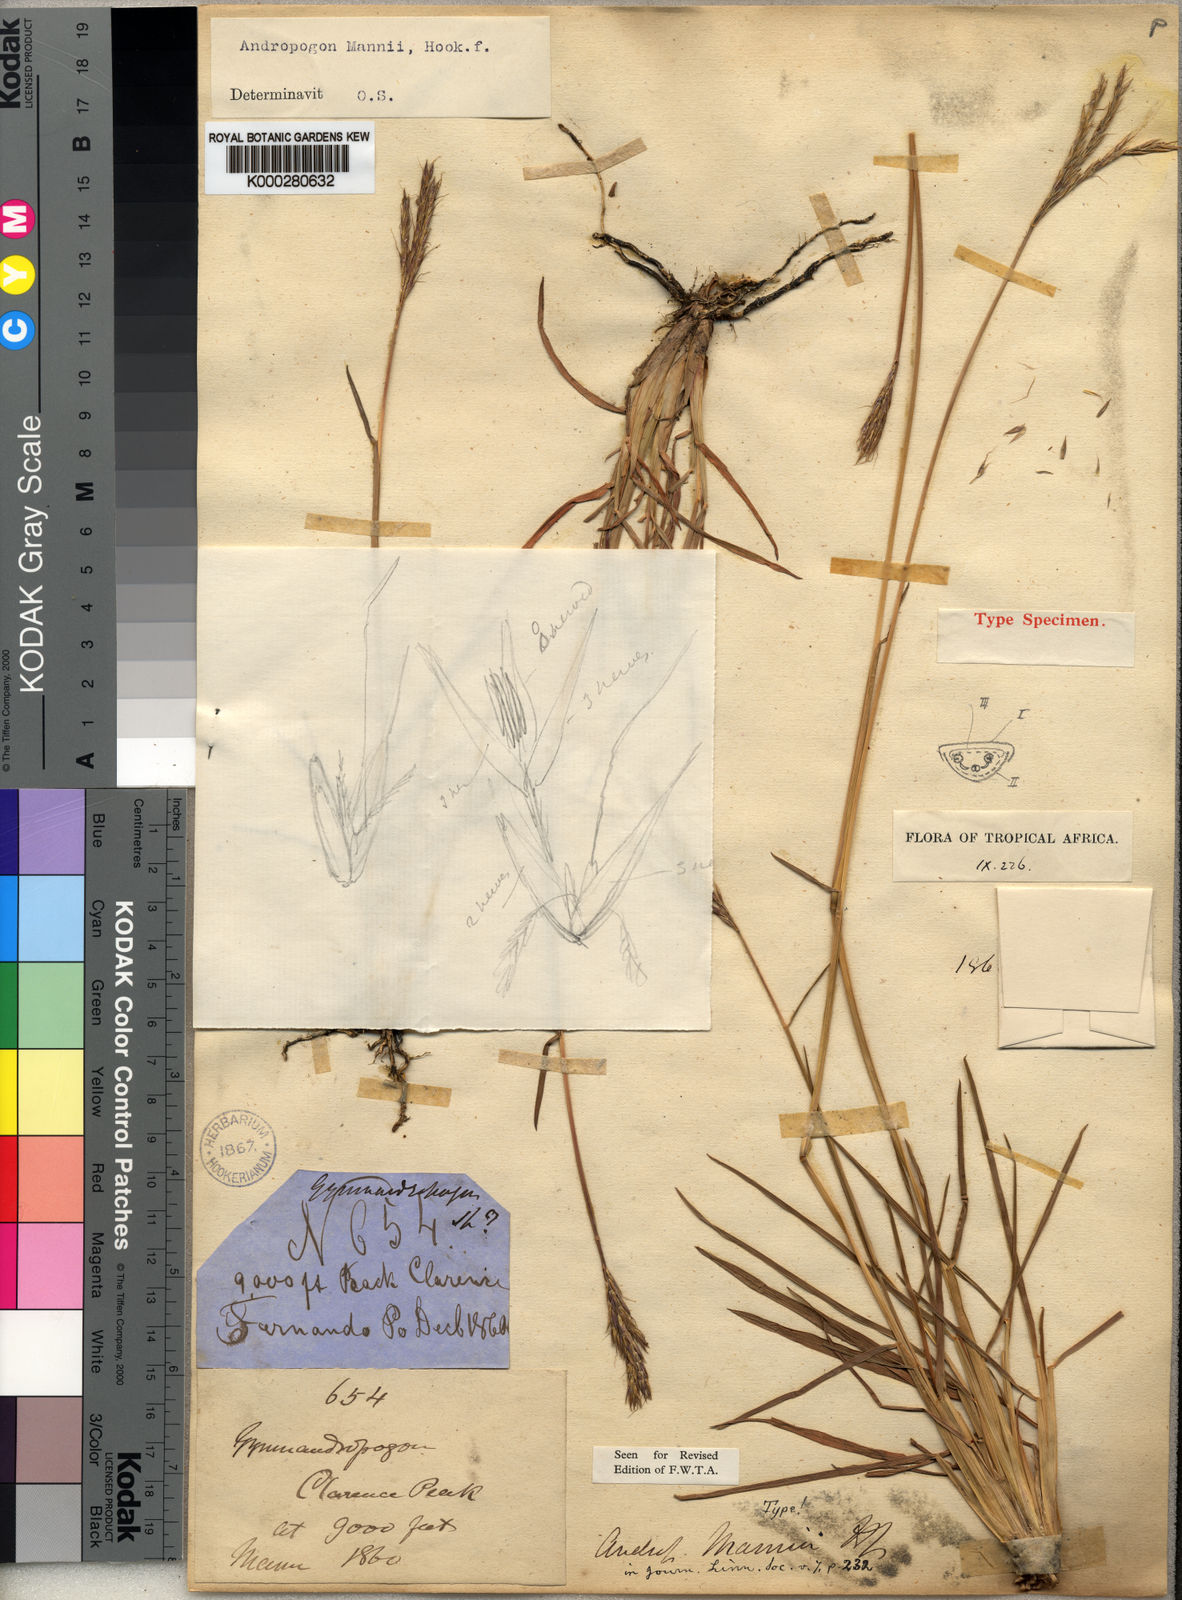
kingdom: Plantae
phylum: Tracheophyta
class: Liliopsida
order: Poales
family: Poaceae
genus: Andropogon
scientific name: Andropogon mannii
